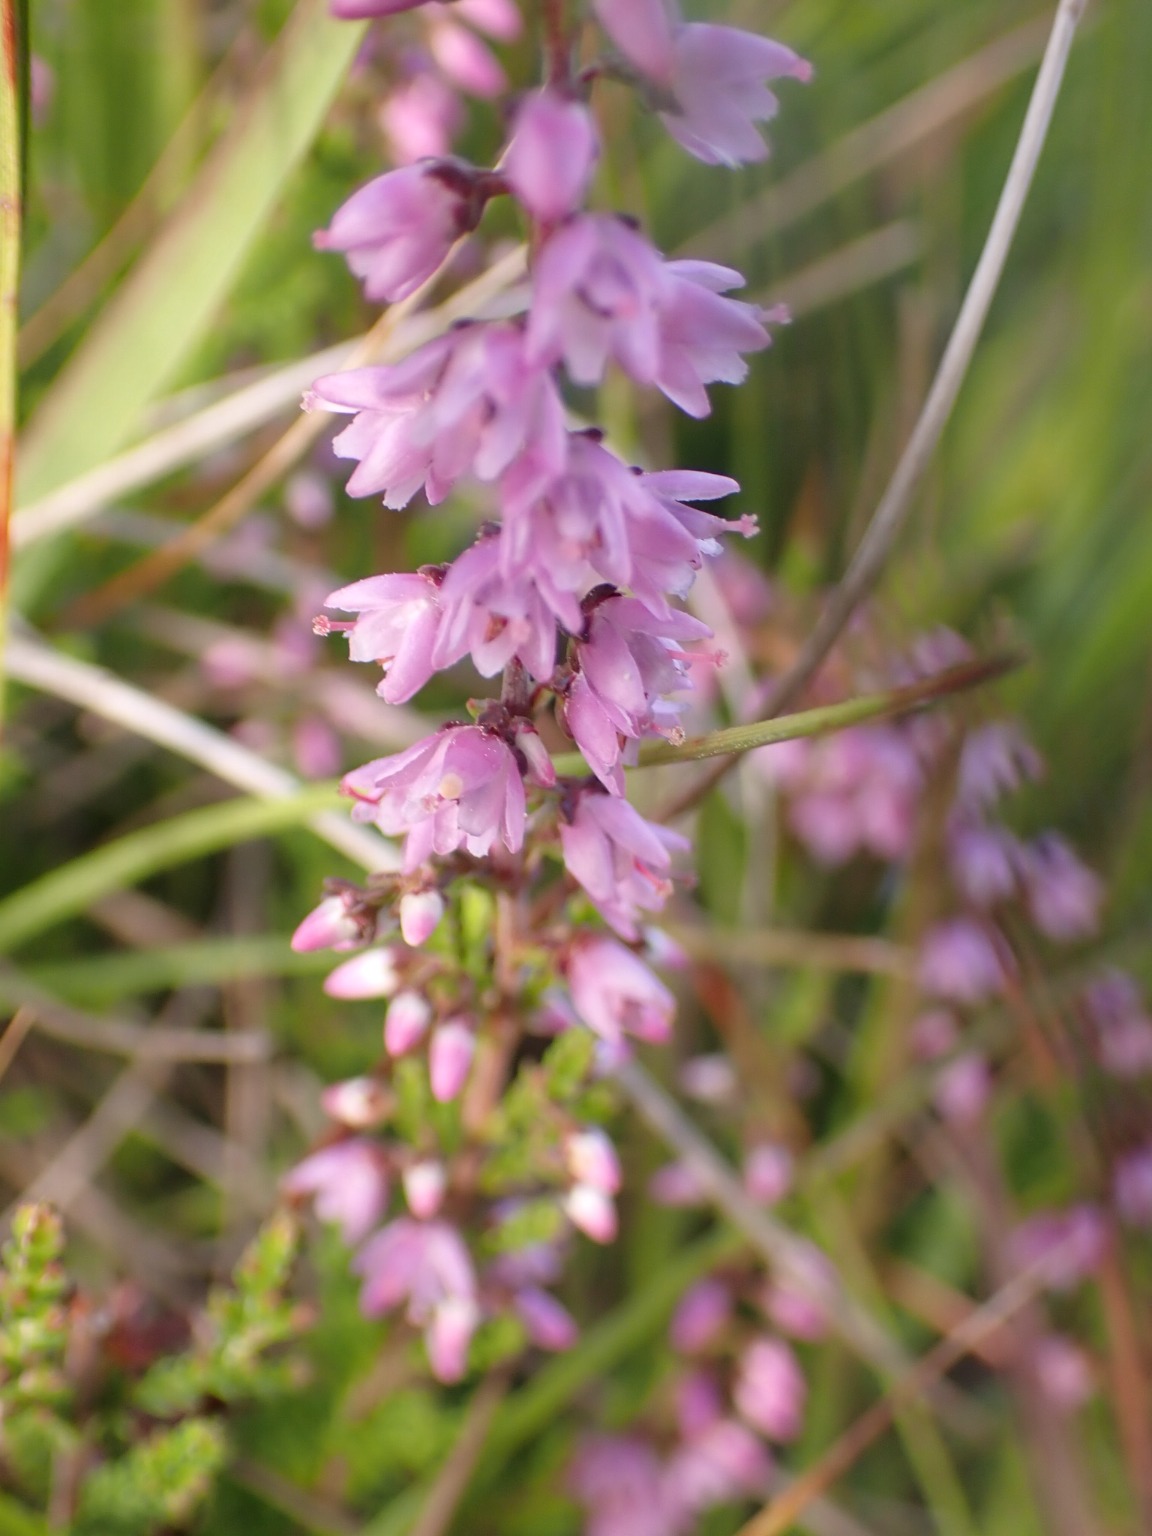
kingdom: Plantae
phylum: Tracheophyta
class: Magnoliopsida
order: Ericales
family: Ericaceae
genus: Calluna
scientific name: Calluna vulgaris
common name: Hedelyng
